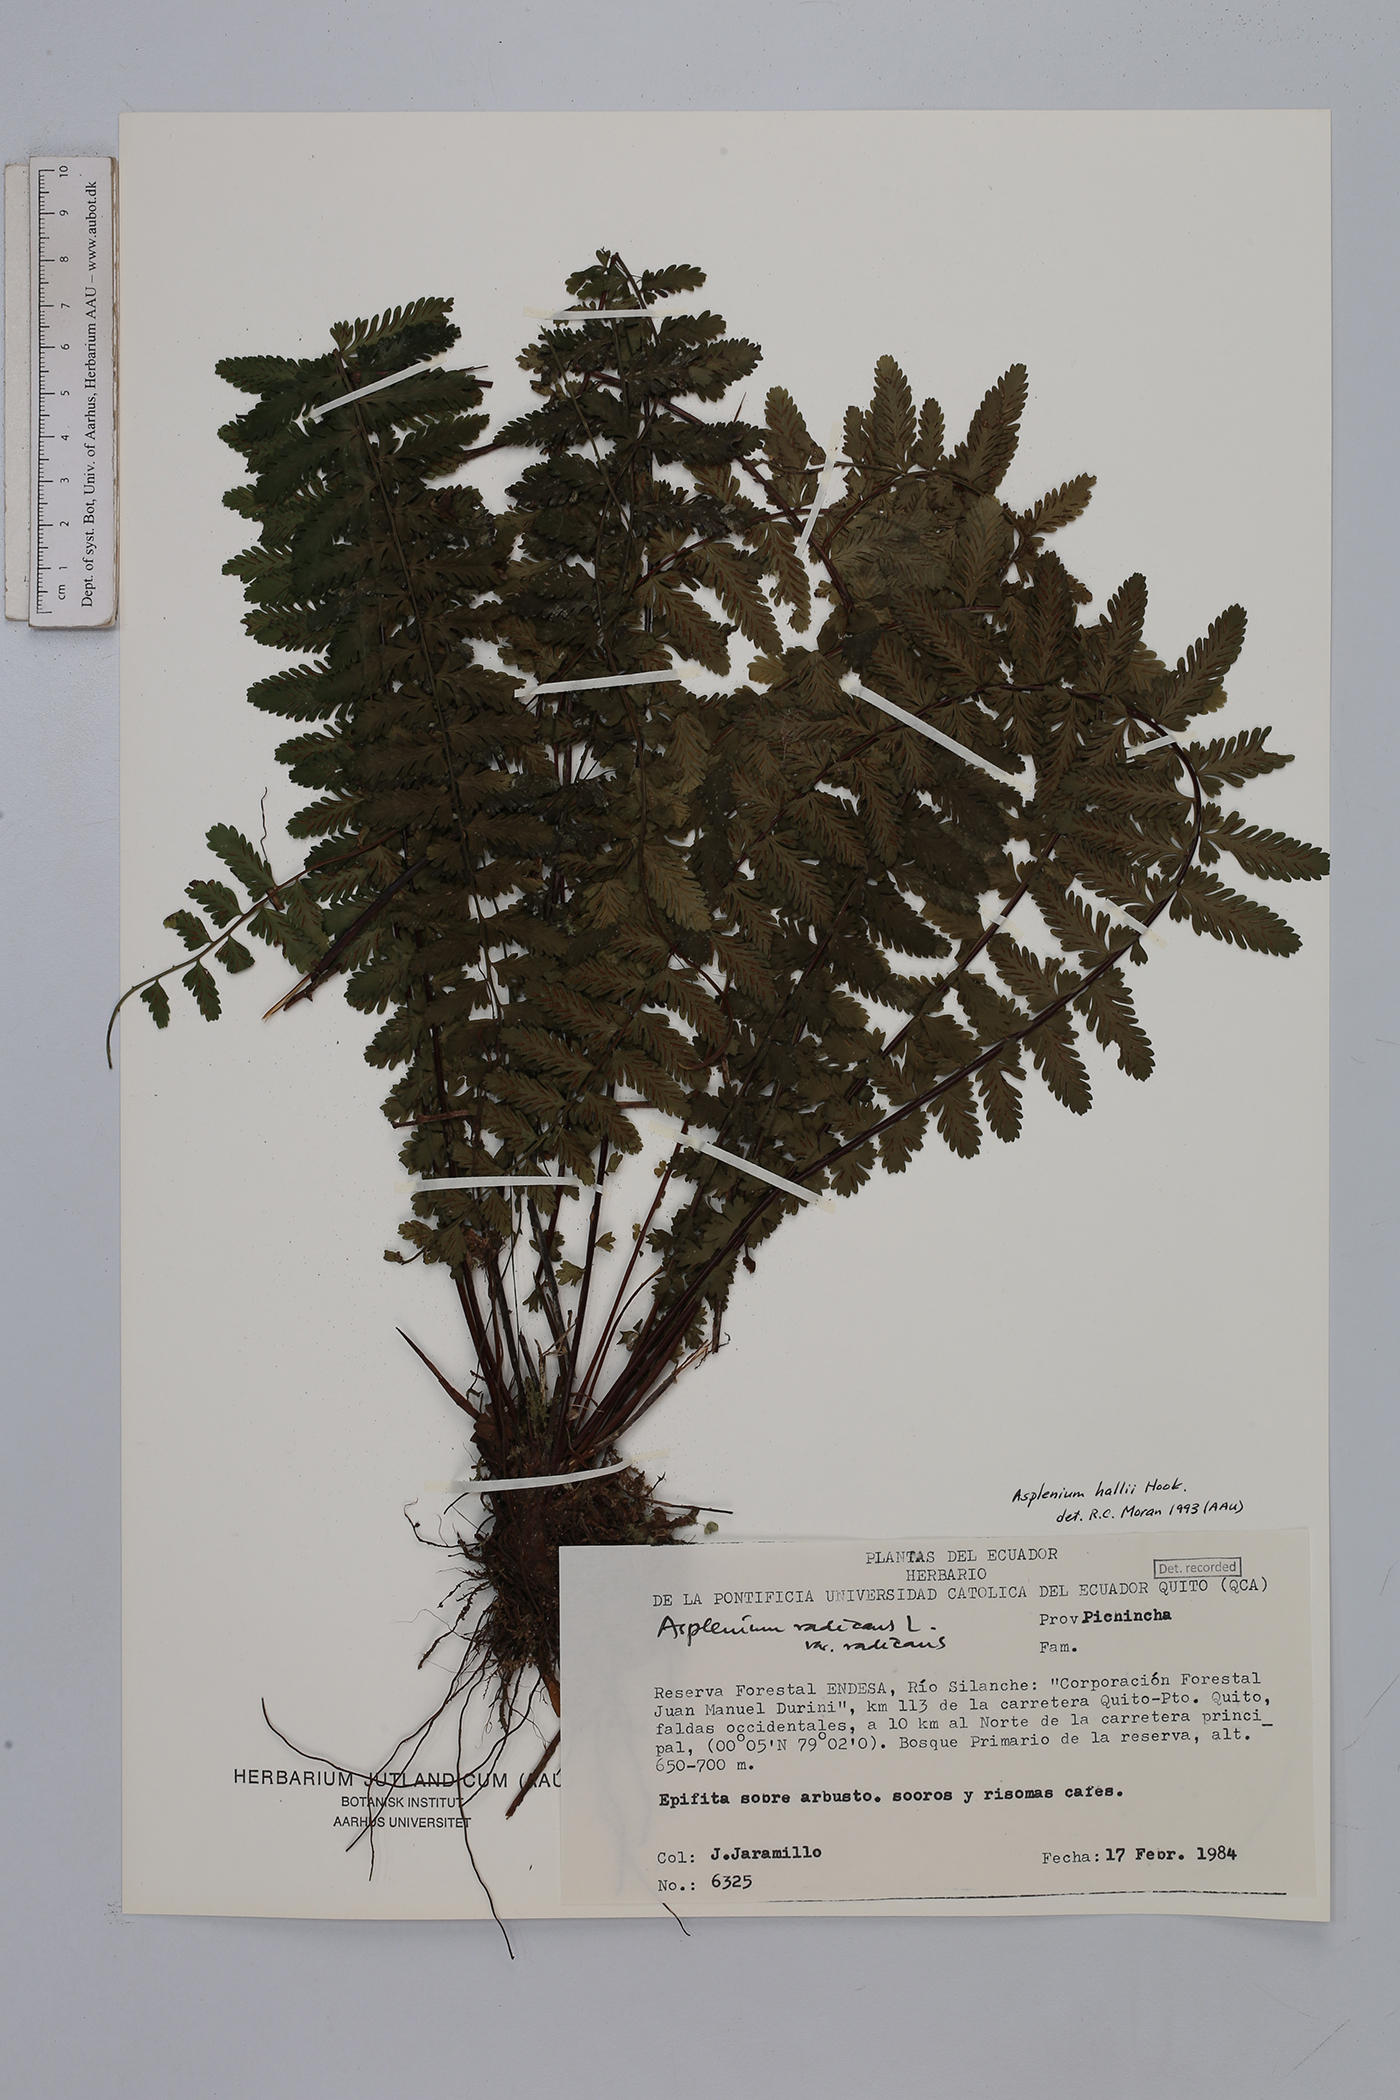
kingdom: Plantae
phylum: Tracheophyta
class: Polypodiopsida
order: Polypodiales
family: Aspleniaceae
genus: Asplenium
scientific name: Asplenium hallii
